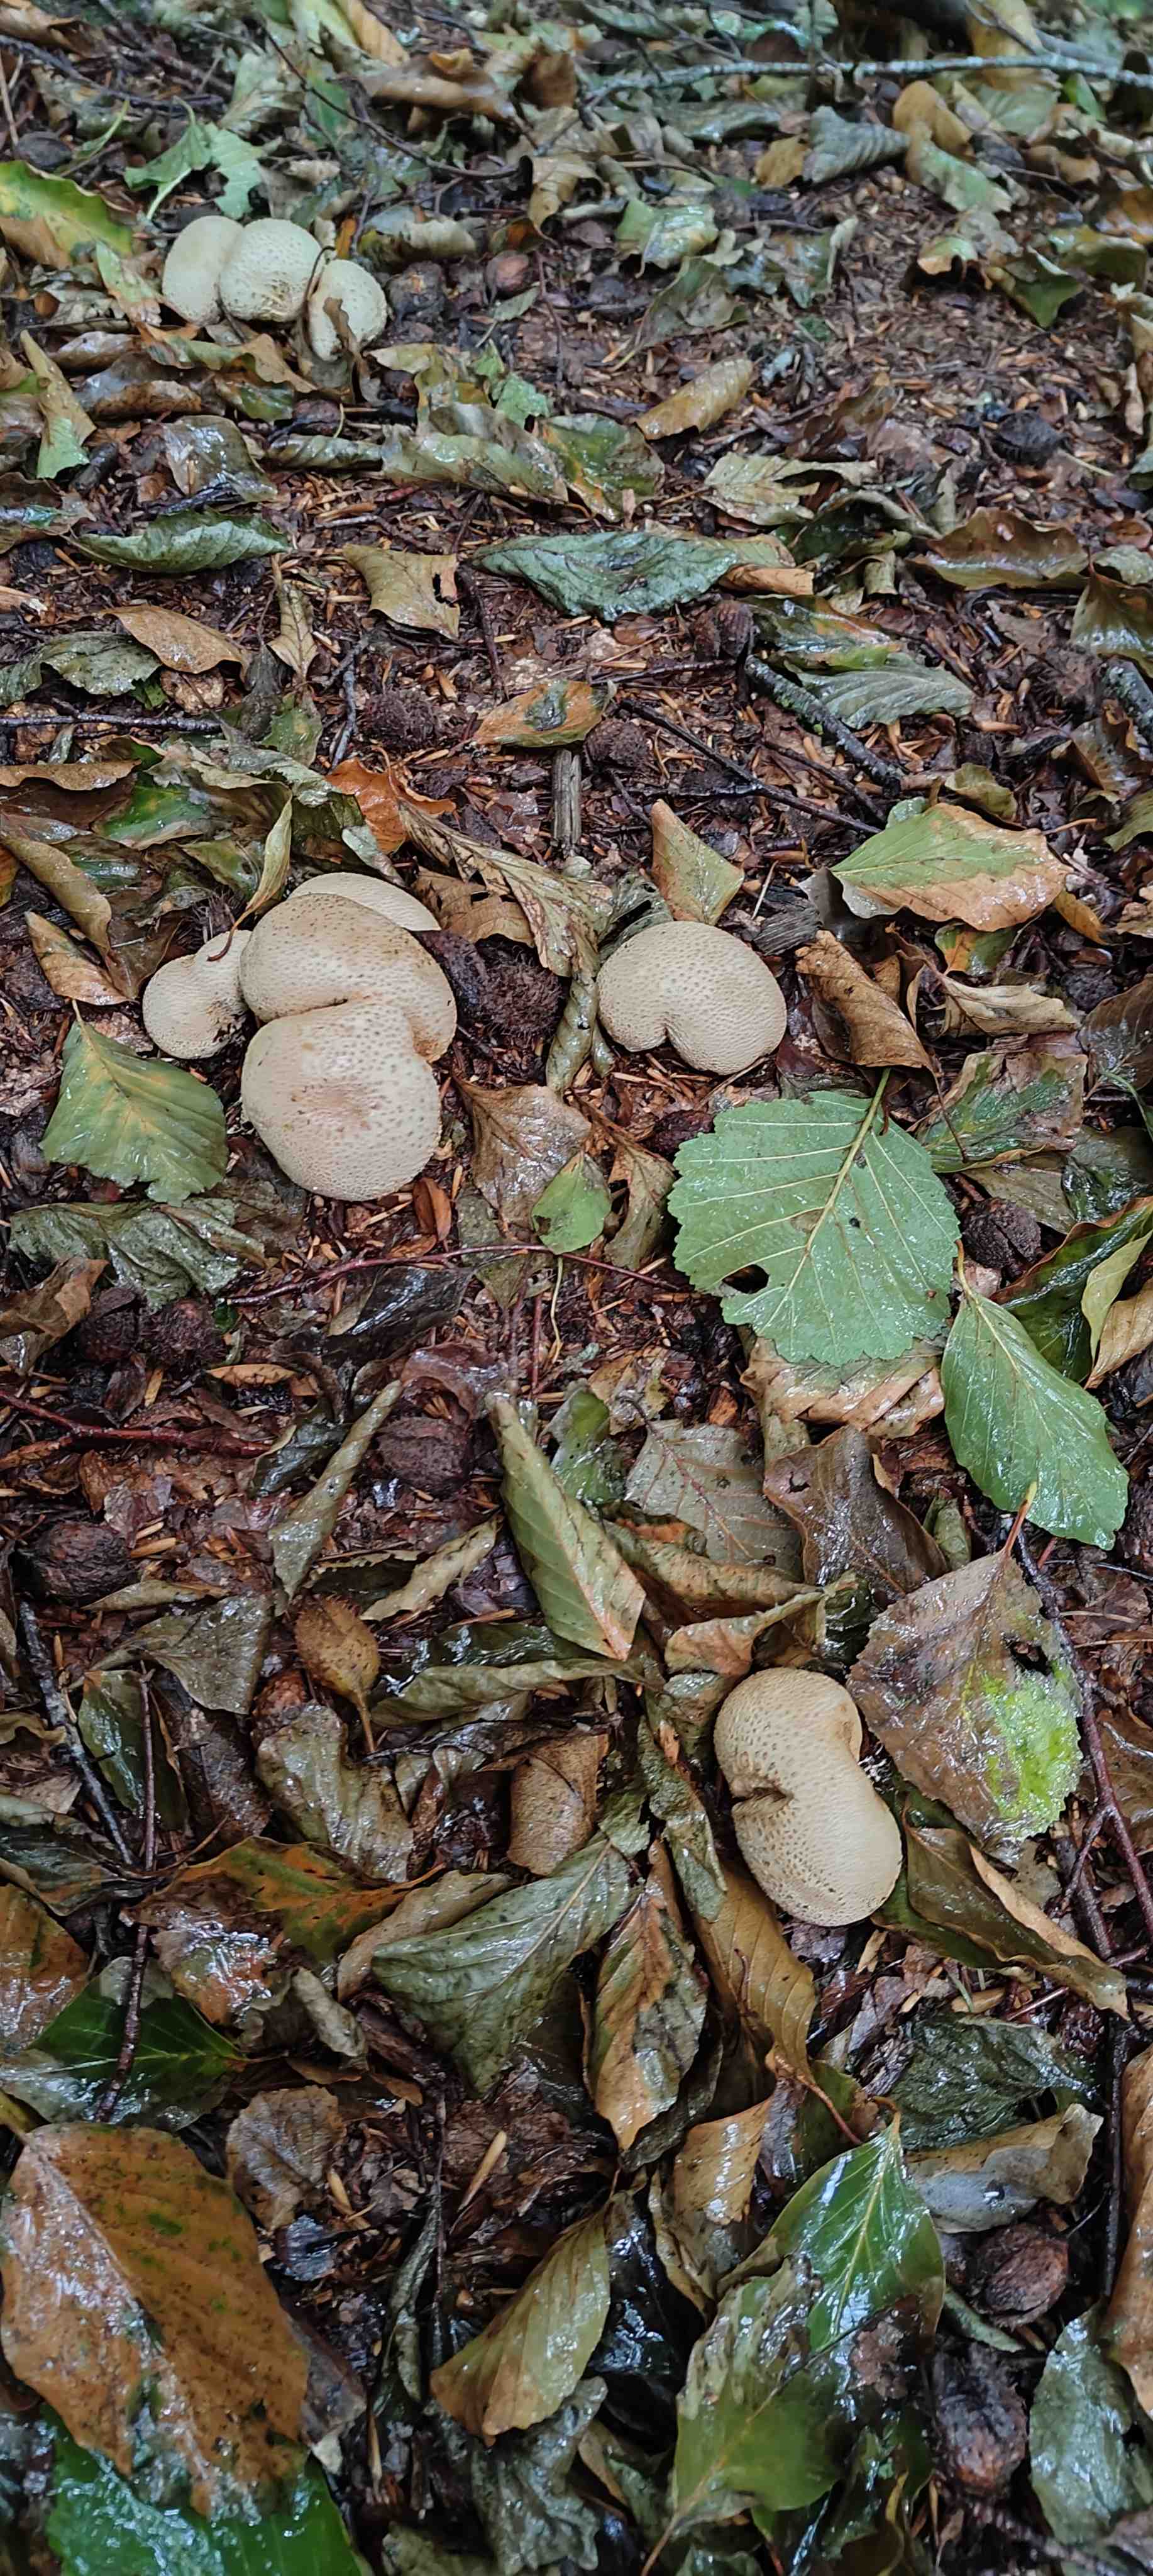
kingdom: Fungi
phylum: Basidiomycota
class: Agaricomycetes
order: Boletales
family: Sclerodermataceae
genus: Scleroderma
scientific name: Scleroderma citrinum
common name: almindelig bruskbold
